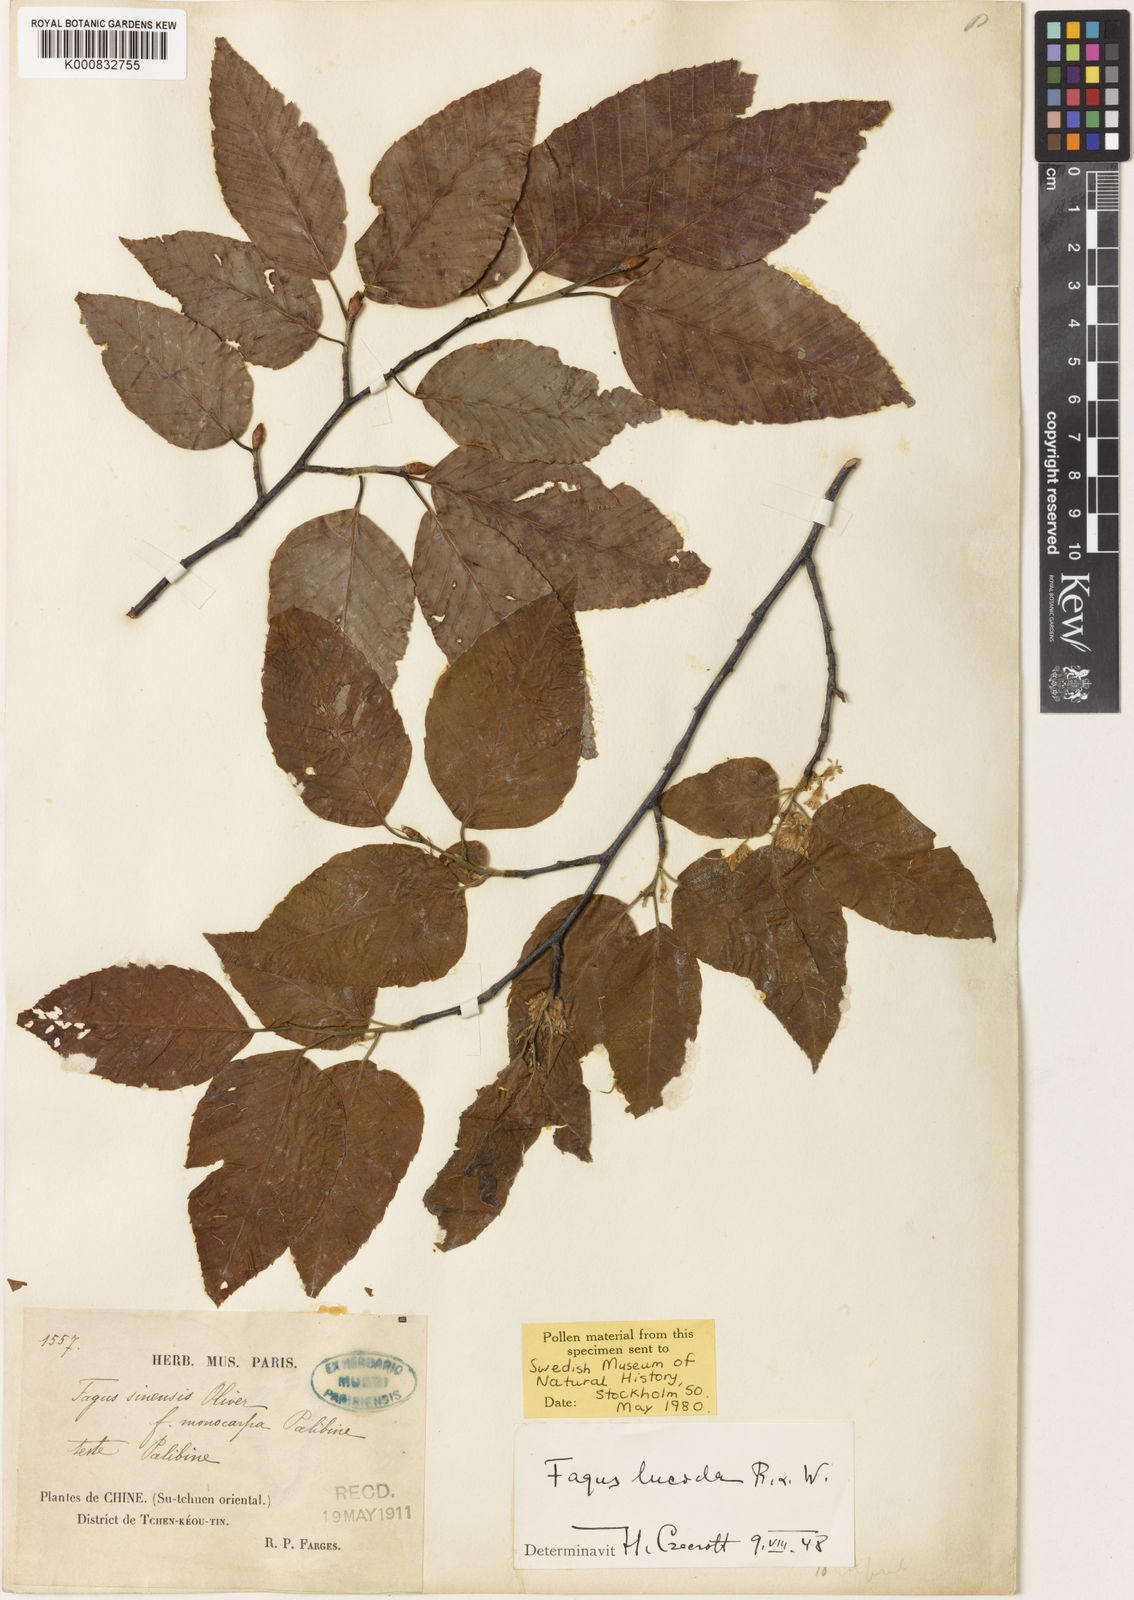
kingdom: Plantae
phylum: Tracheophyta
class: Magnoliopsida
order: Fagales
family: Fagaceae
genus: Fagus
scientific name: Fagus lucida
